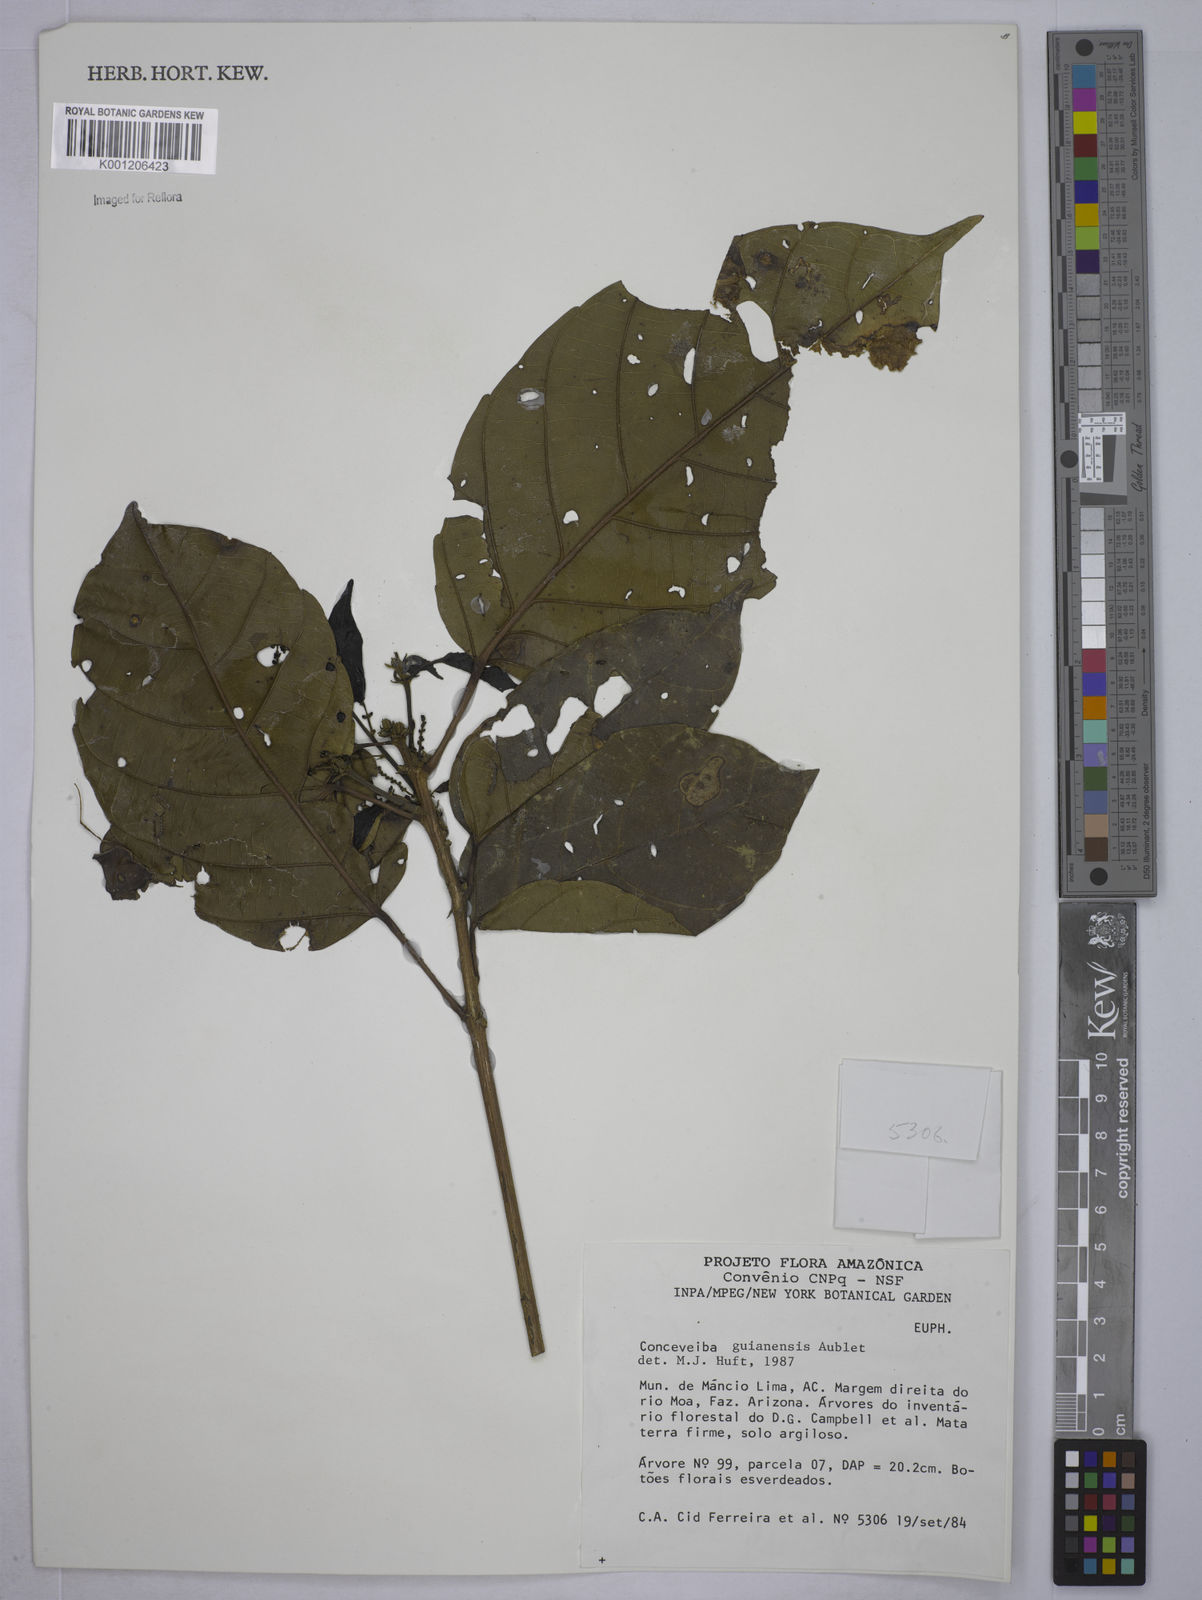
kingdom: Plantae
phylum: Tracheophyta
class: Magnoliopsida
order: Malpighiales
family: Euphorbiaceae
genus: Conceveiba
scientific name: Conceveiba guianensis
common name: Poatoru
